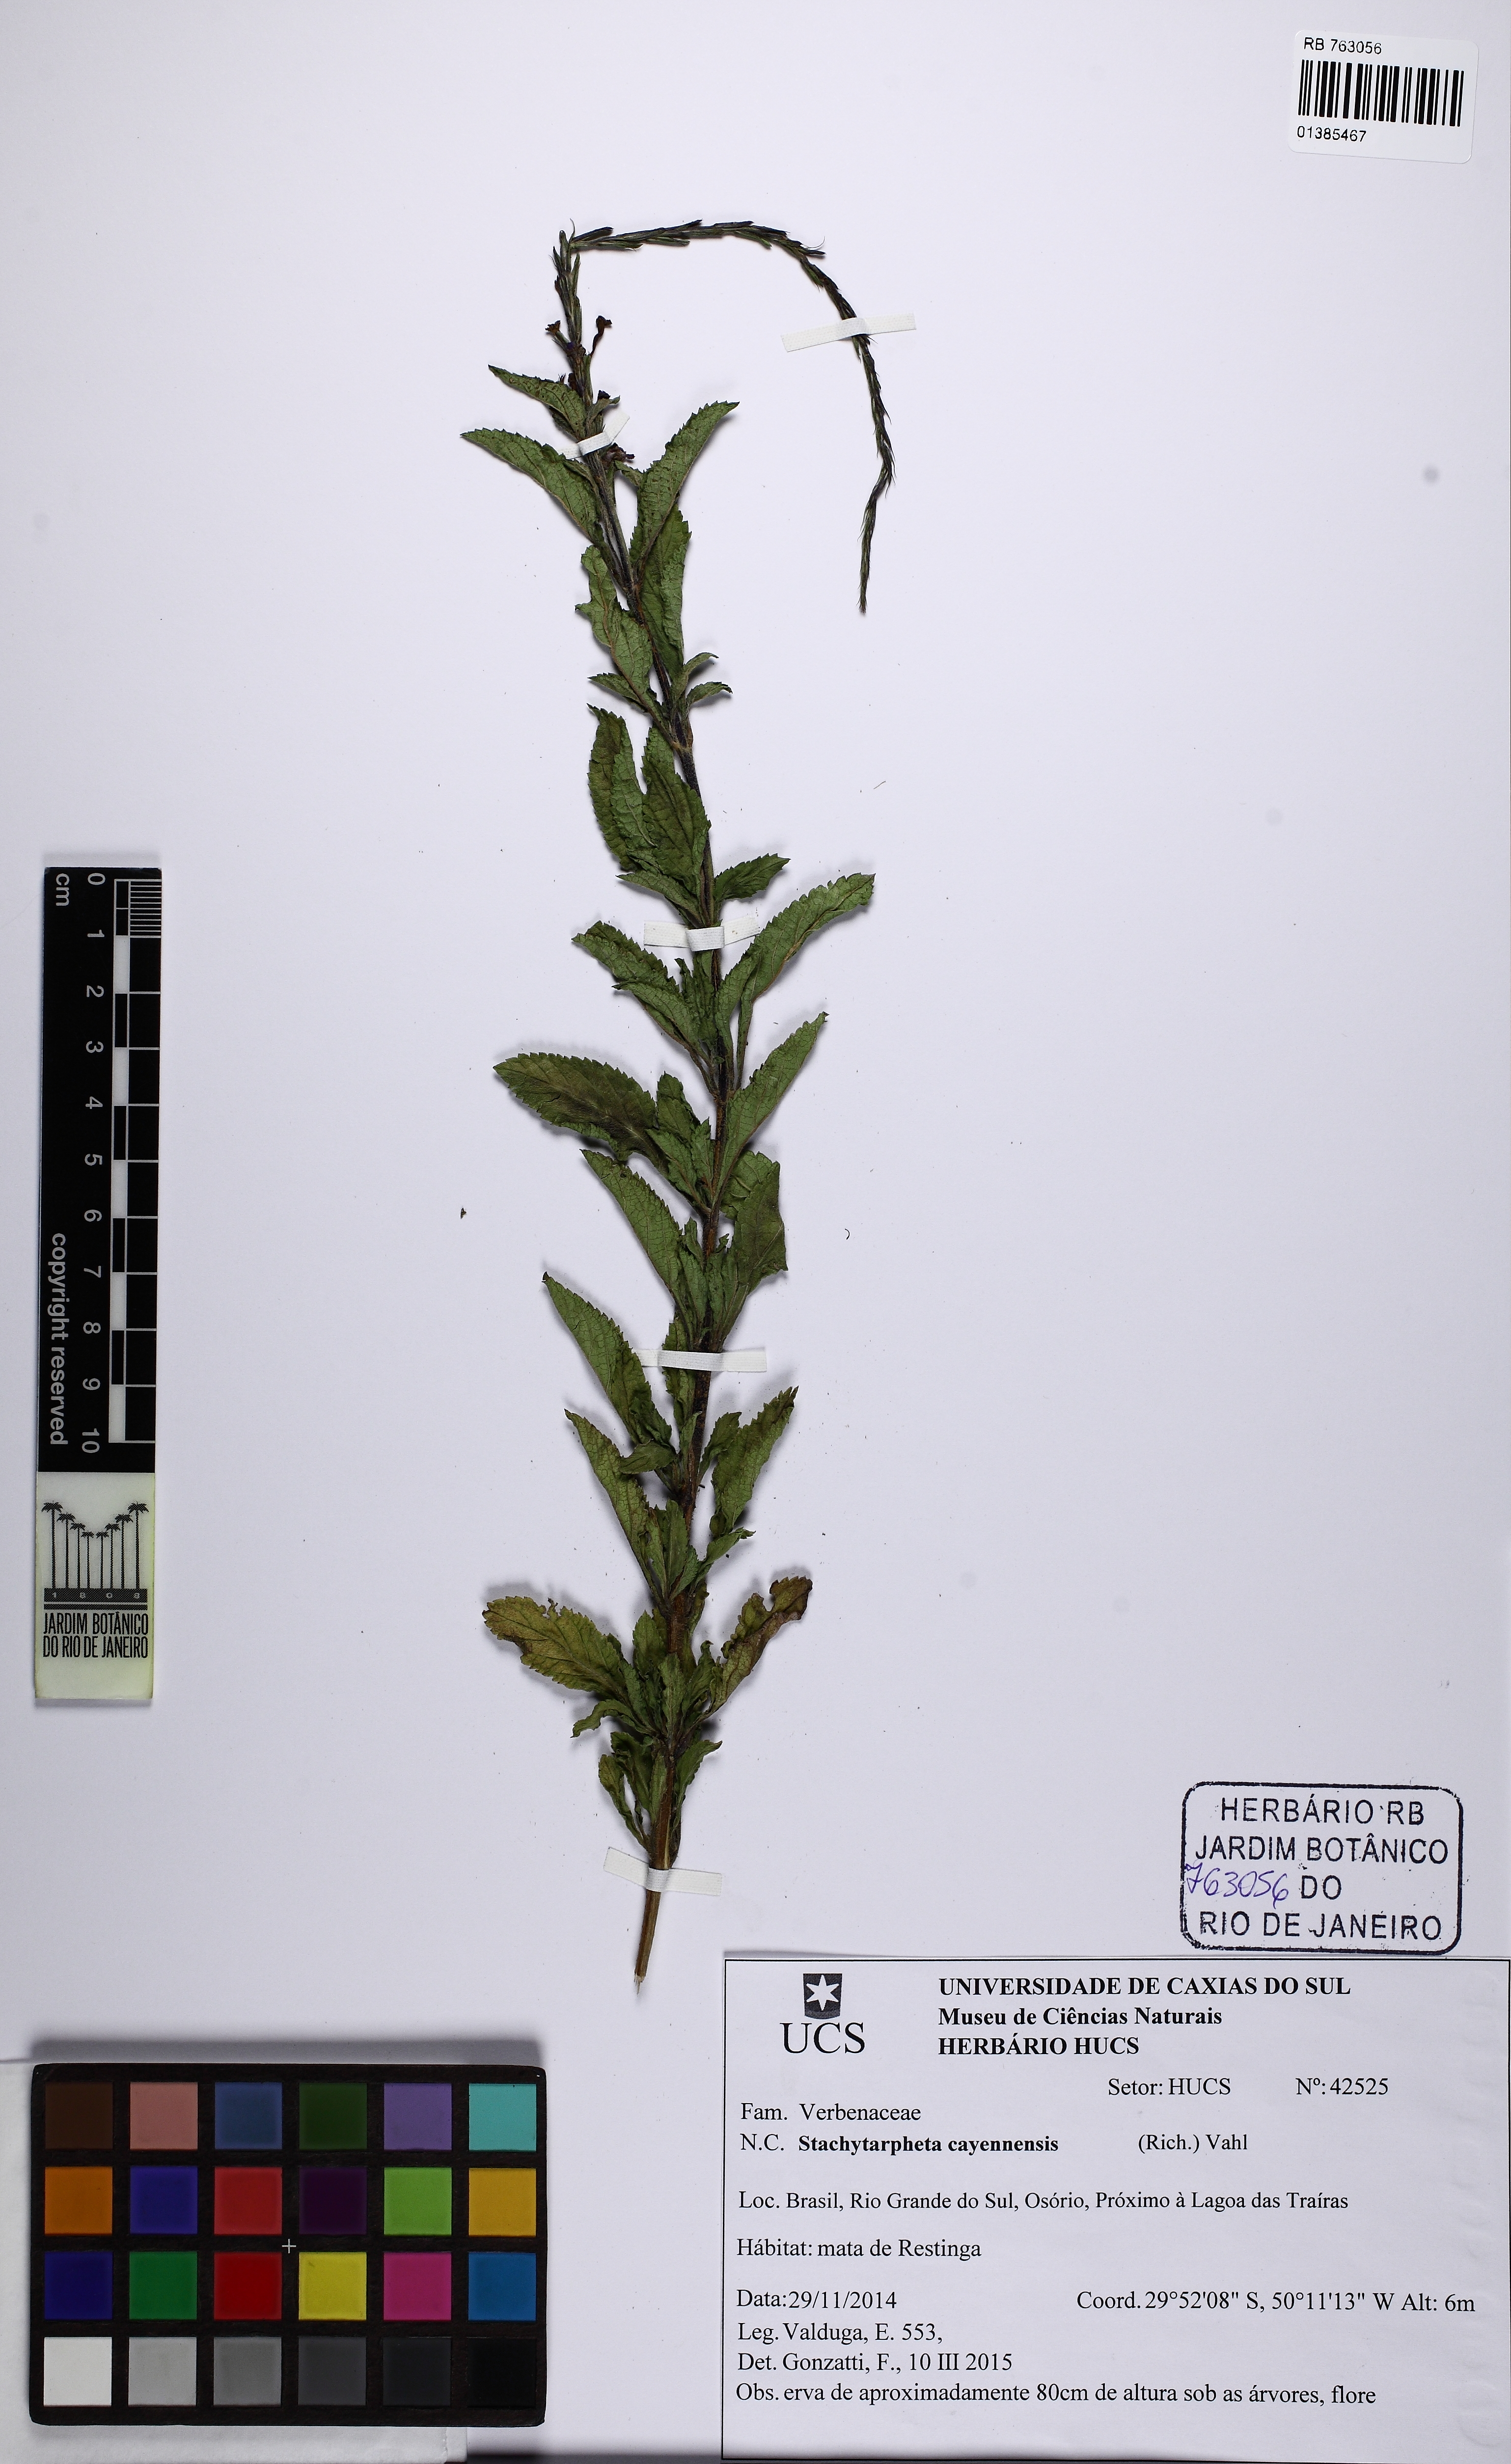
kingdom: Plantae
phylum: Tracheophyta
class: Magnoliopsida
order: Lamiales
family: Verbenaceae
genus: Stachytarpheta
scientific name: Stachytarpheta cayennensis
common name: Cayenne porterweed
